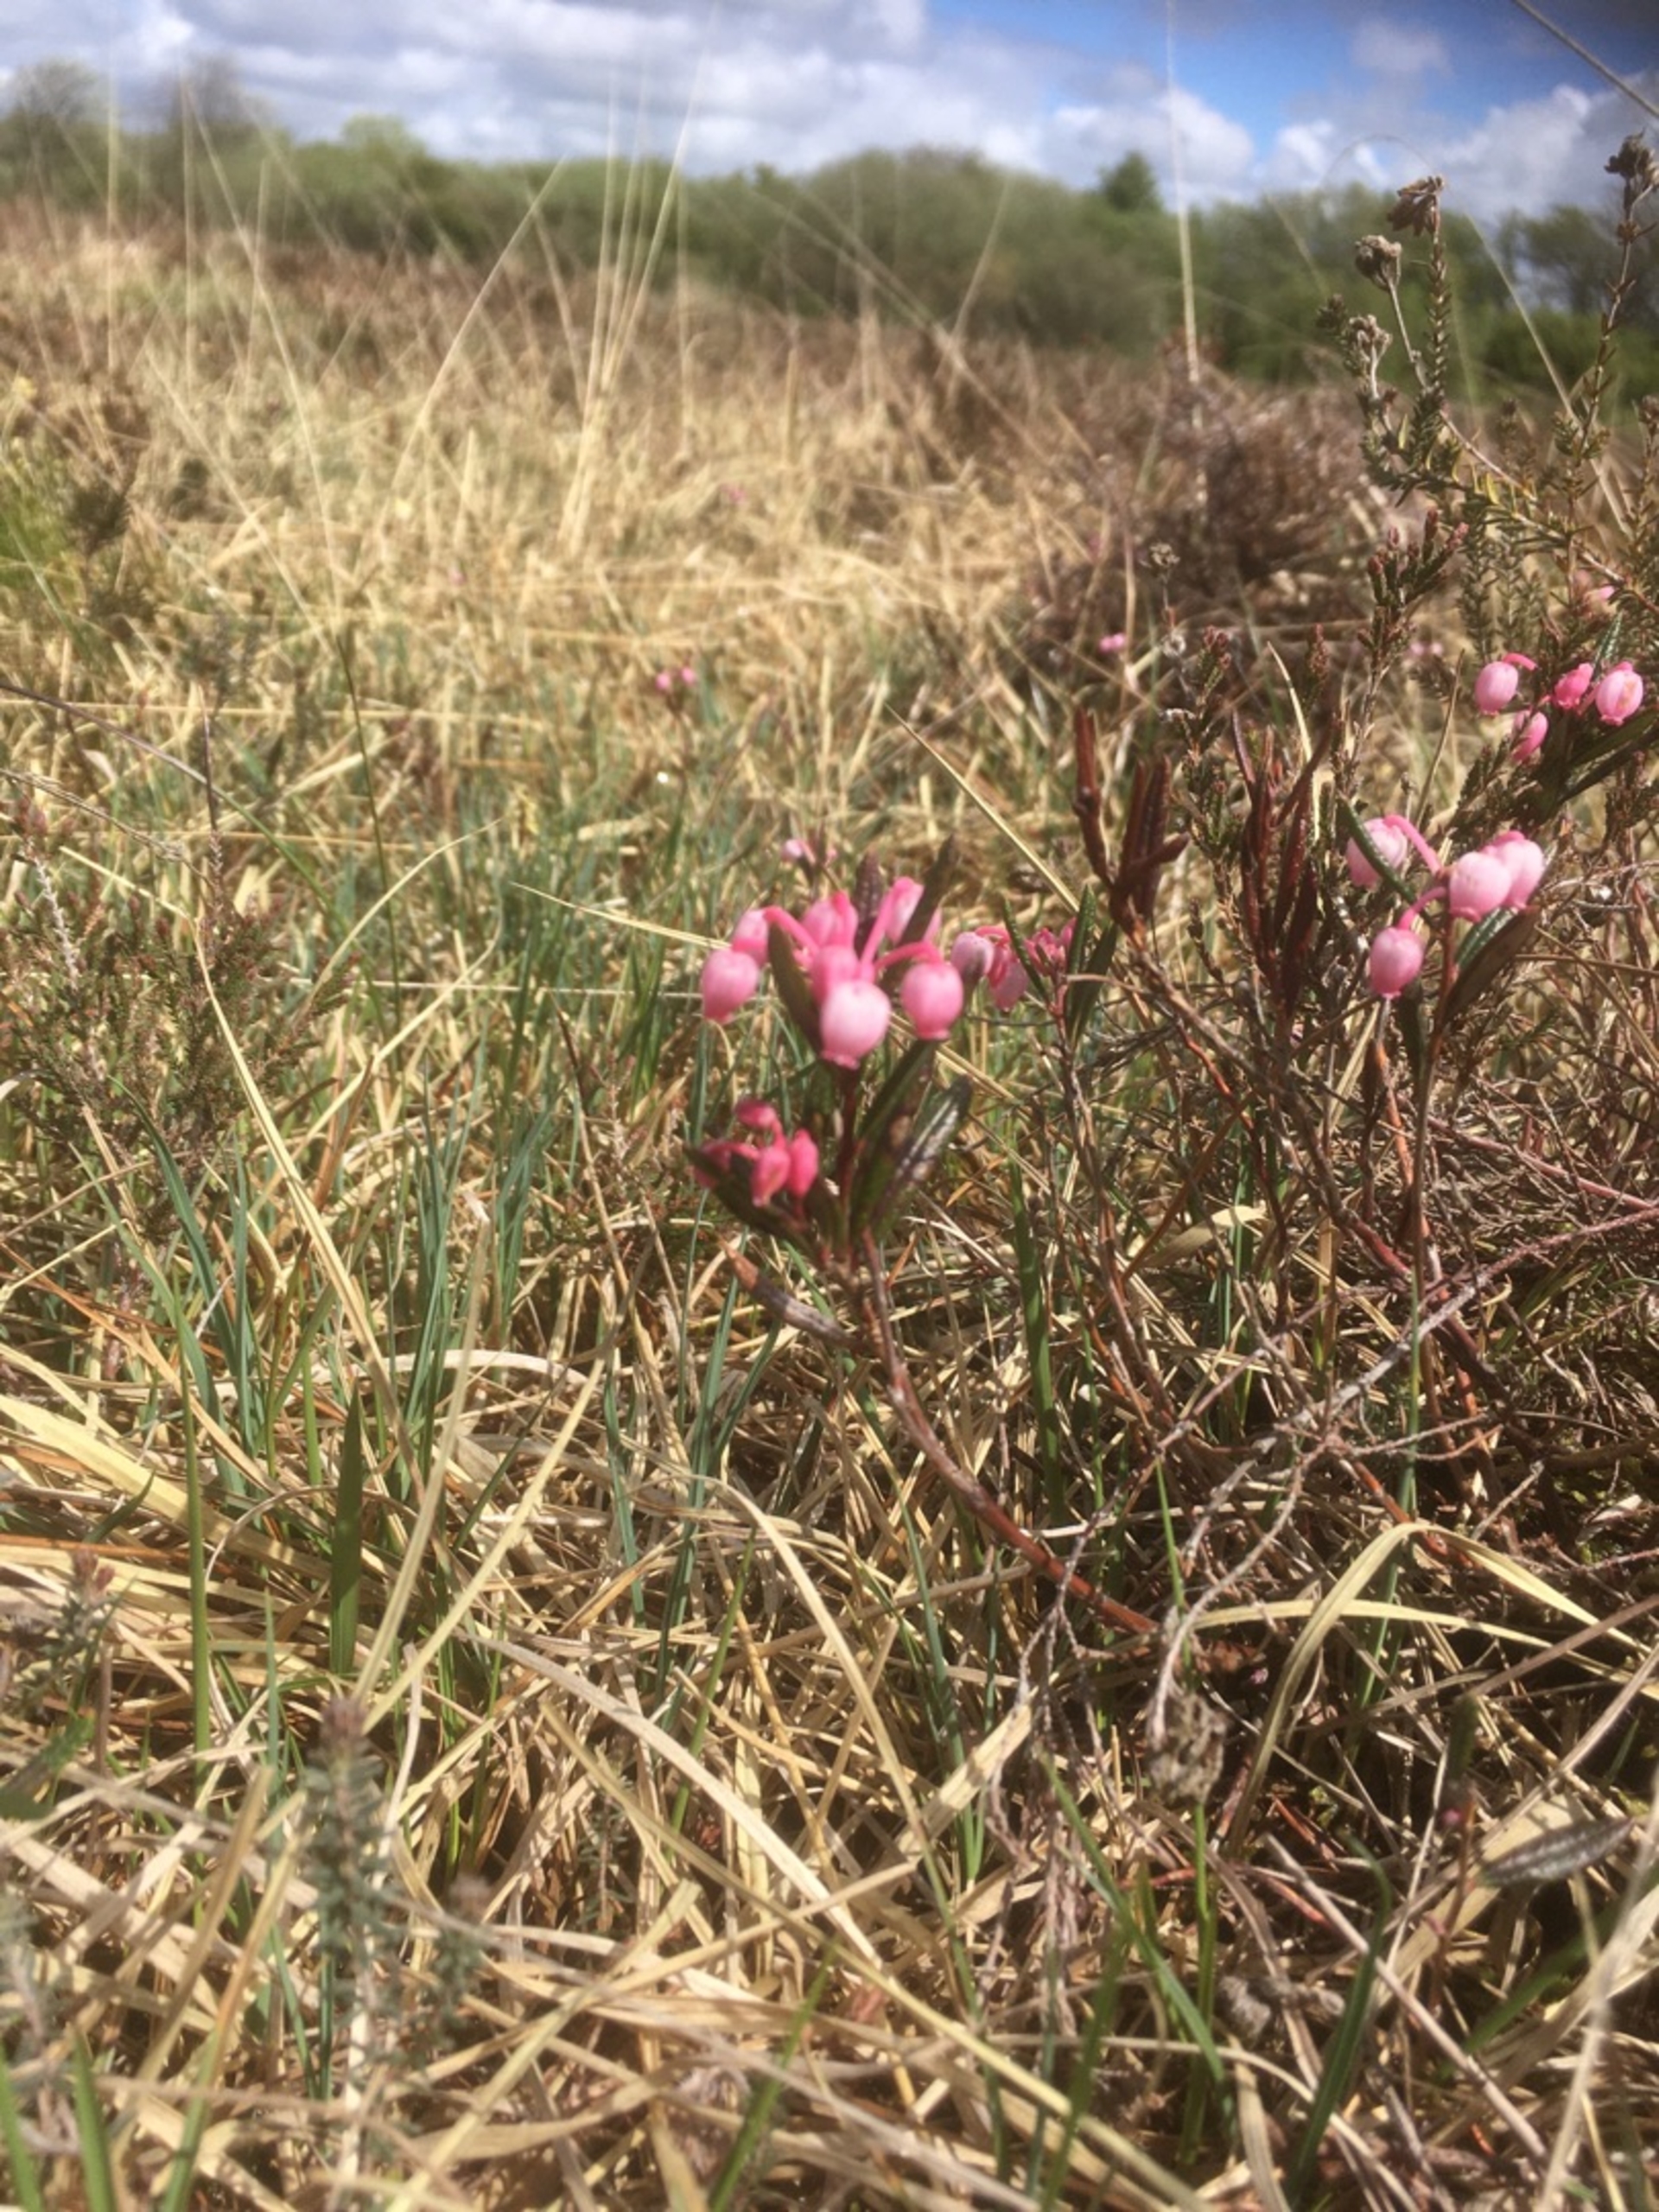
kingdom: Plantae
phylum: Tracheophyta
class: Magnoliopsida
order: Ericales
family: Ericaceae
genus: Andromeda
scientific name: Andromeda polifolia
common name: Rosmarinlyng
